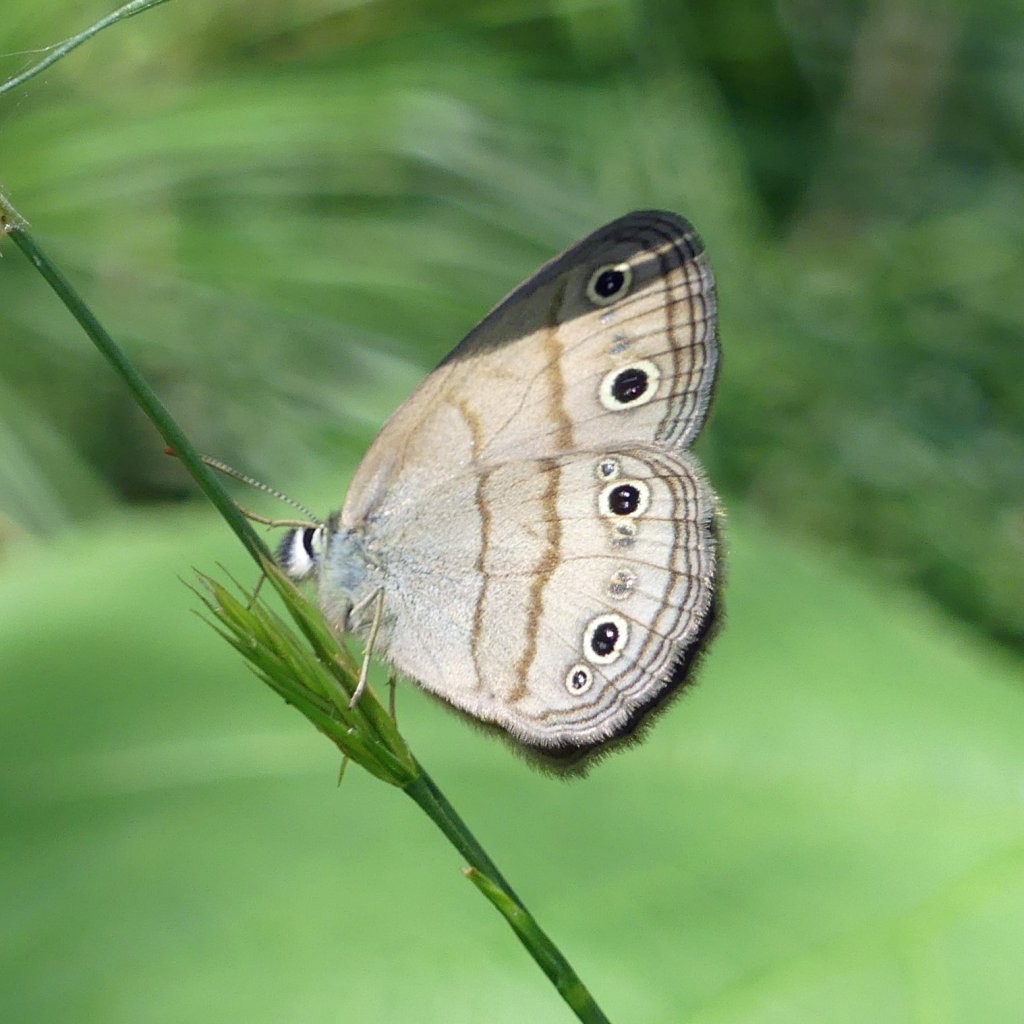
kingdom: Animalia
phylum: Arthropoda
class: Insecta
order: Lepidoptera
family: Nymphalidae
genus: Euptychia
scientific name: Euptychia cymela
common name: Little Wood Satyr
